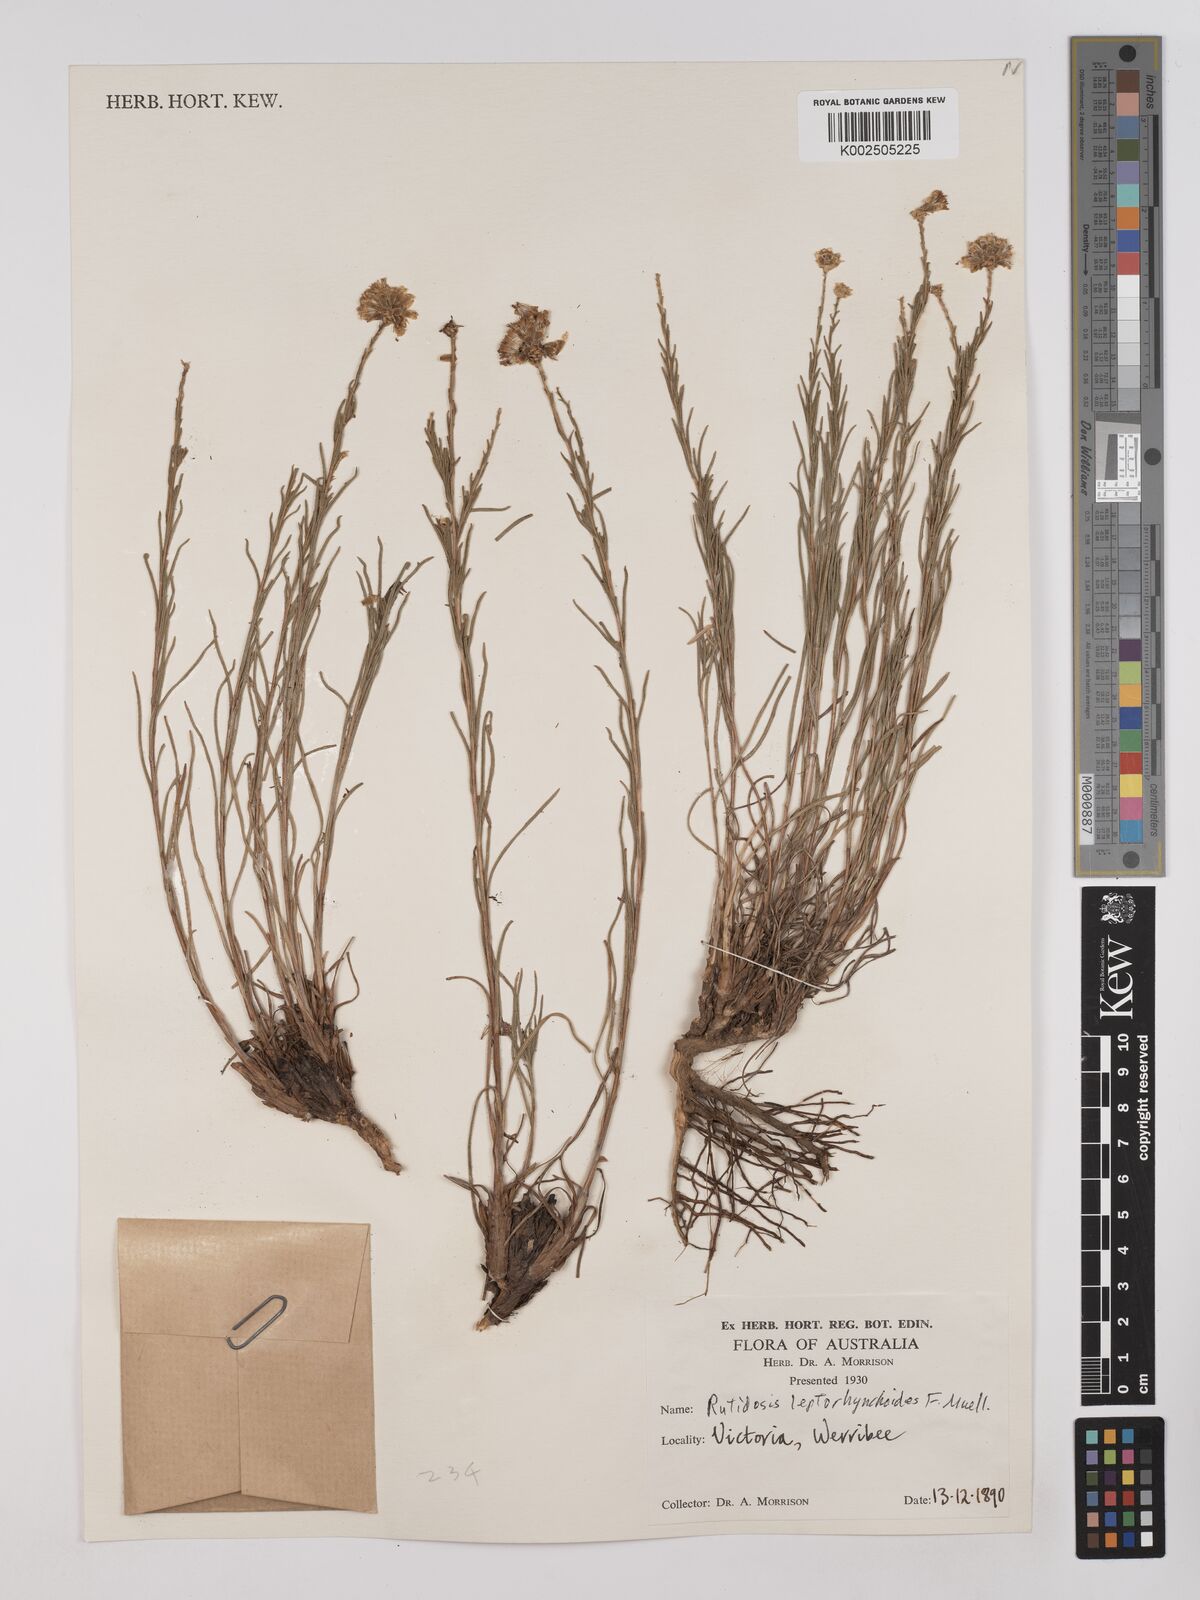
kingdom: Plantae
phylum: Tracheophyta
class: Magnoliopsida
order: Asterales
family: Asteraceae
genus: Rutidosis
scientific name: Rutidosis leptorrhynchoides
